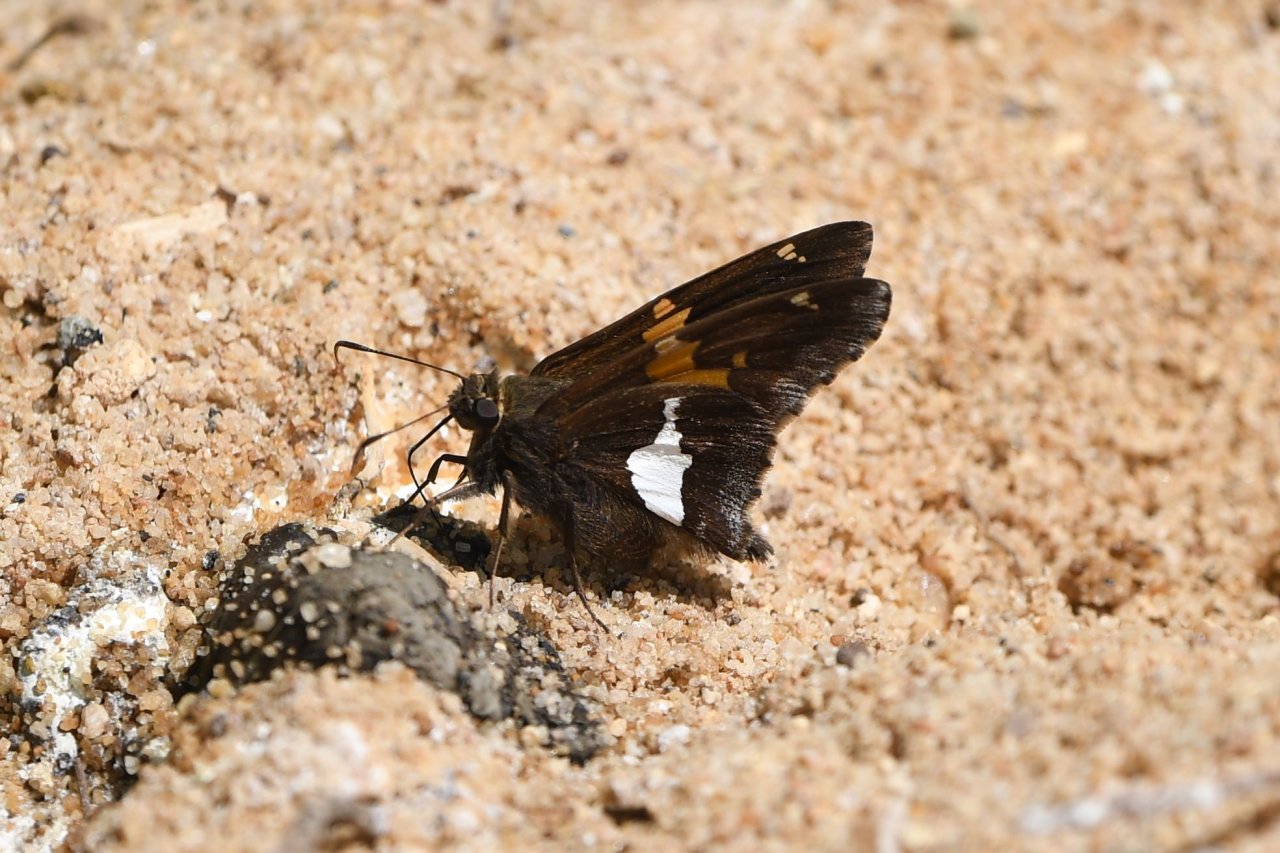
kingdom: Animalia
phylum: Arthropoda
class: Insecta
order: Lepidoptera
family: Hesperiidae
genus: Epargyreus
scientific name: Epargyreus clarus
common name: Silver-spotted Skipper
